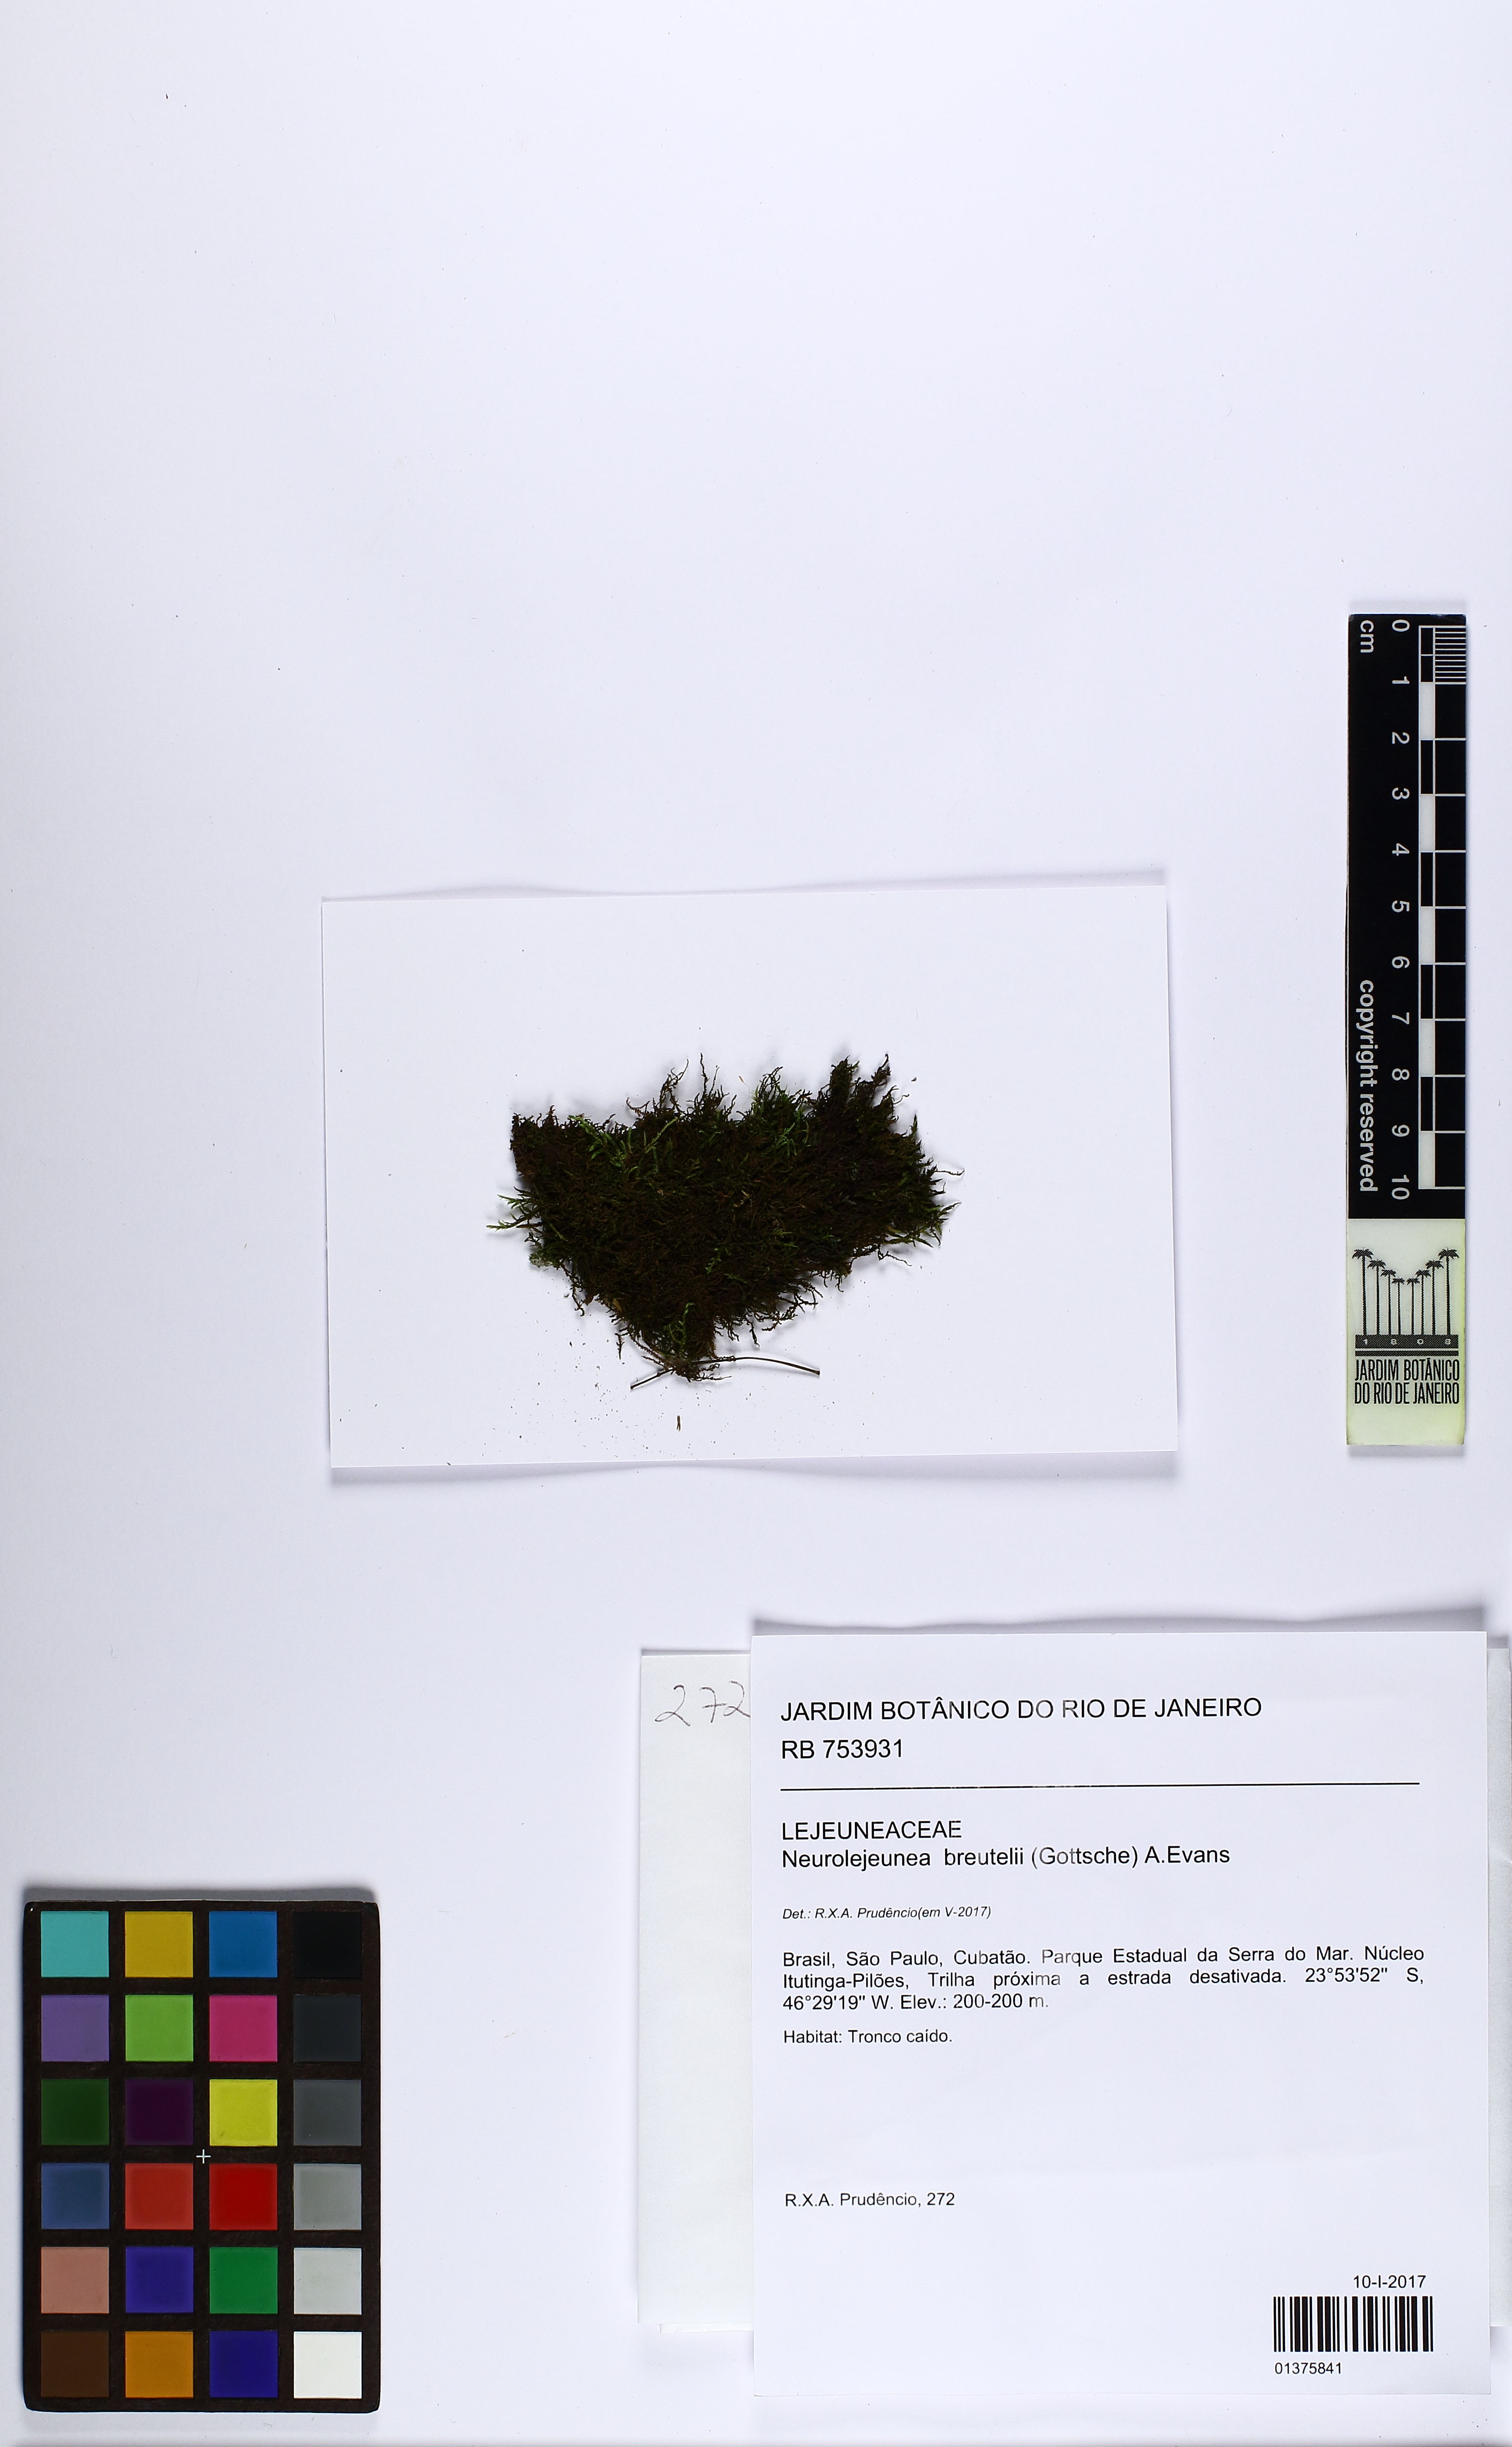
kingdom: Plantae
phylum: Marchantiophyta
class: Jungermanniopsida
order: Porellales
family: Lejeuneaceae
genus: Neurolejeunea
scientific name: Neurolejeunea breutelii
